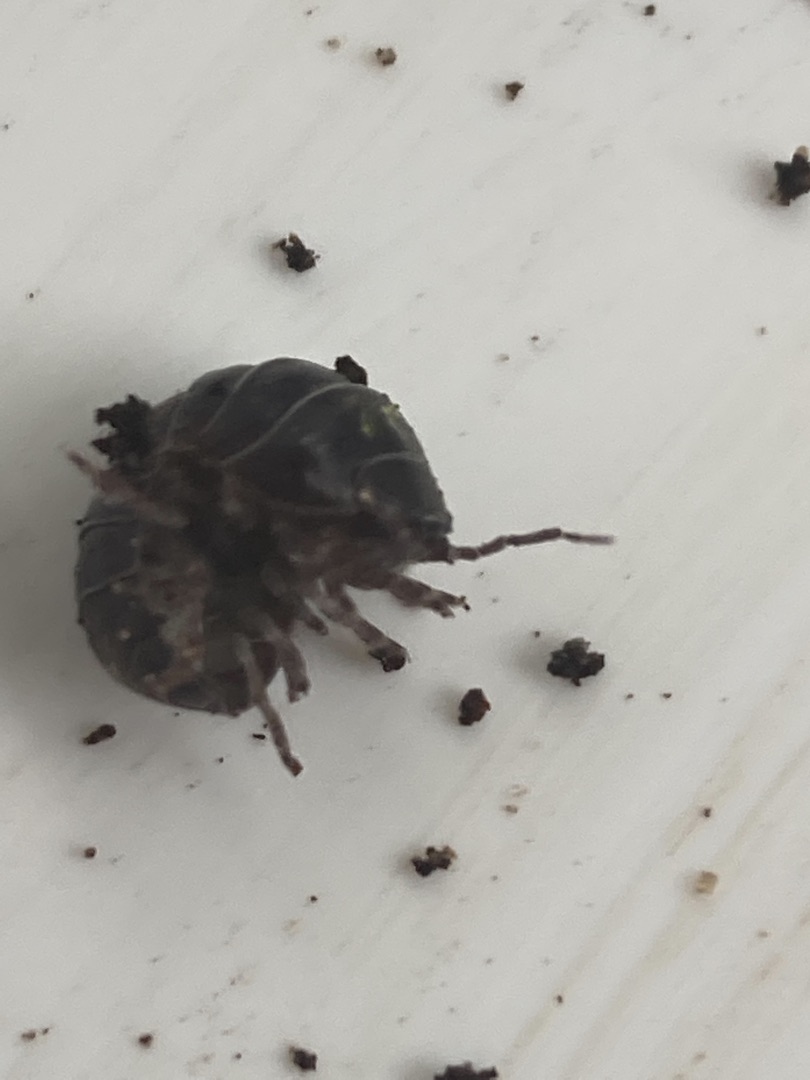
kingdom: Animalia
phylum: Arthropoda
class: Malacostraca
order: Isopoda
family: Armadillidiidae
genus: Armadillidium
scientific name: Armadillidium vulgare
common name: Almindelig kuglebænkebider
